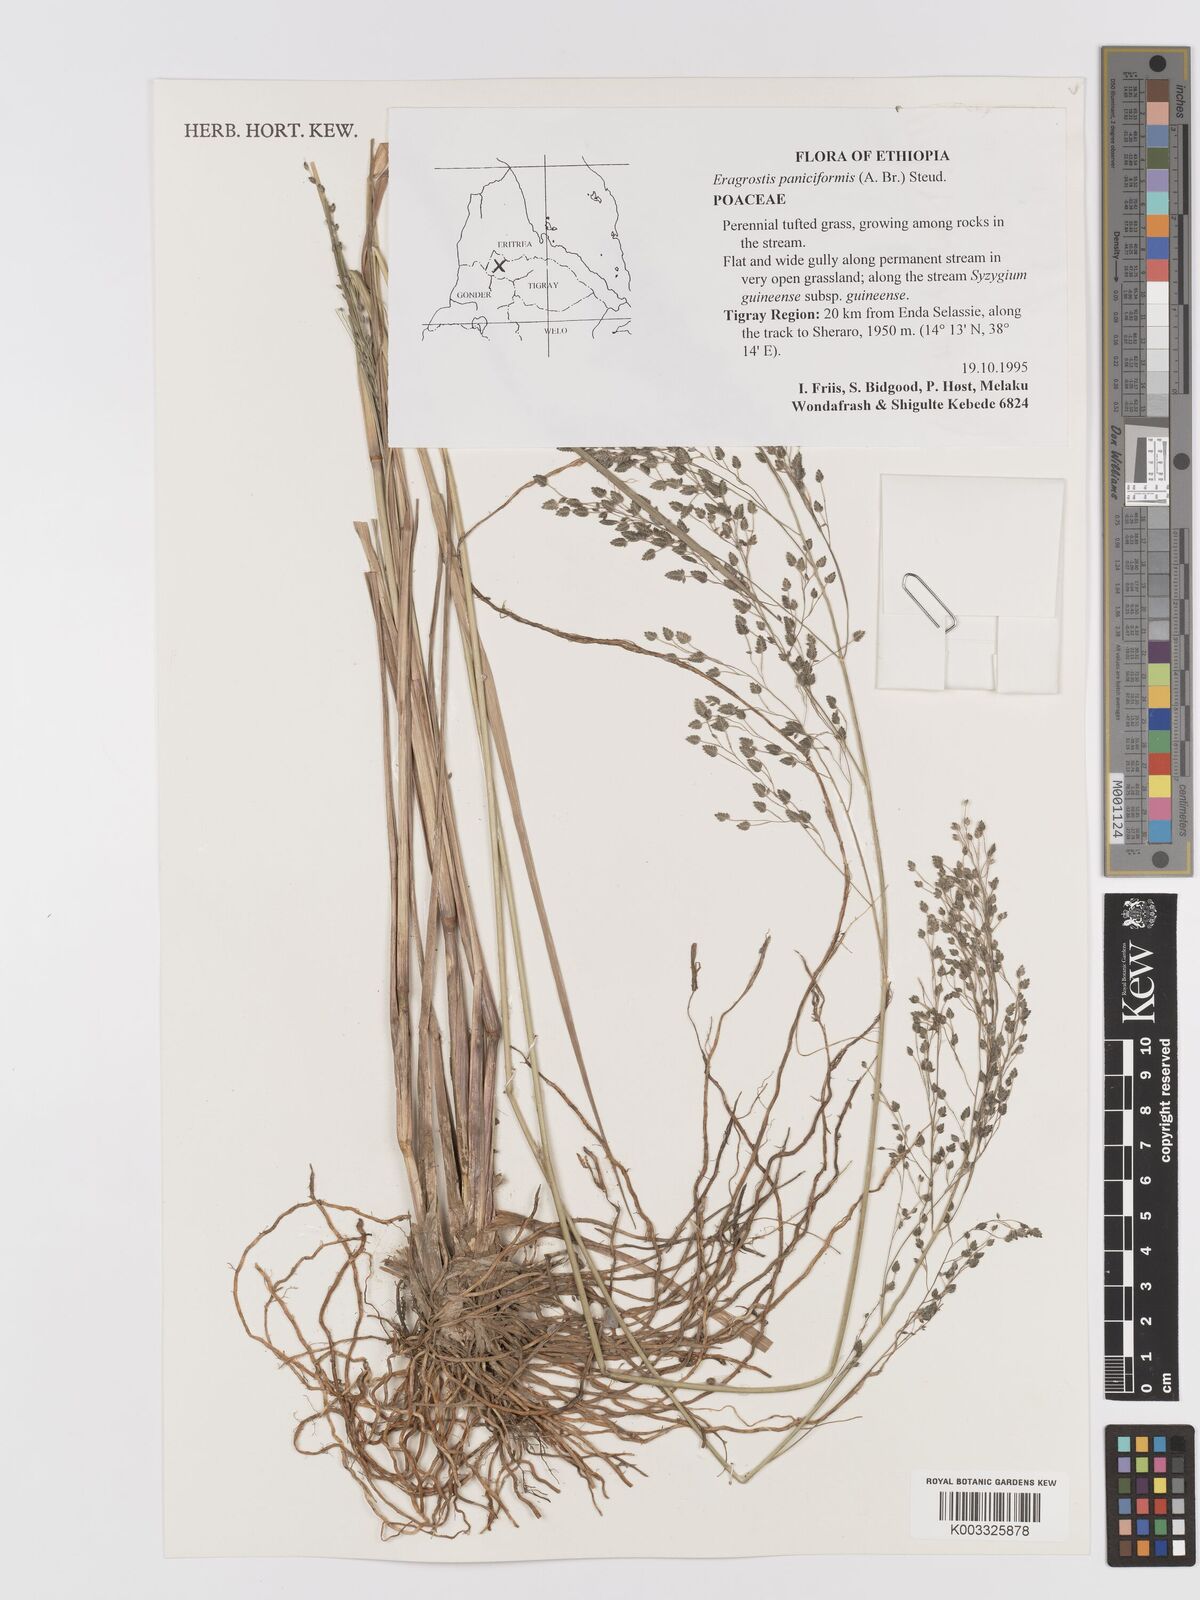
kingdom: Plantae
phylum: Tracheophyta
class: Liliopsida
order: Poales
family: Poaceae
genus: Eragrostis
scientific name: Eragrostis paniciformis
